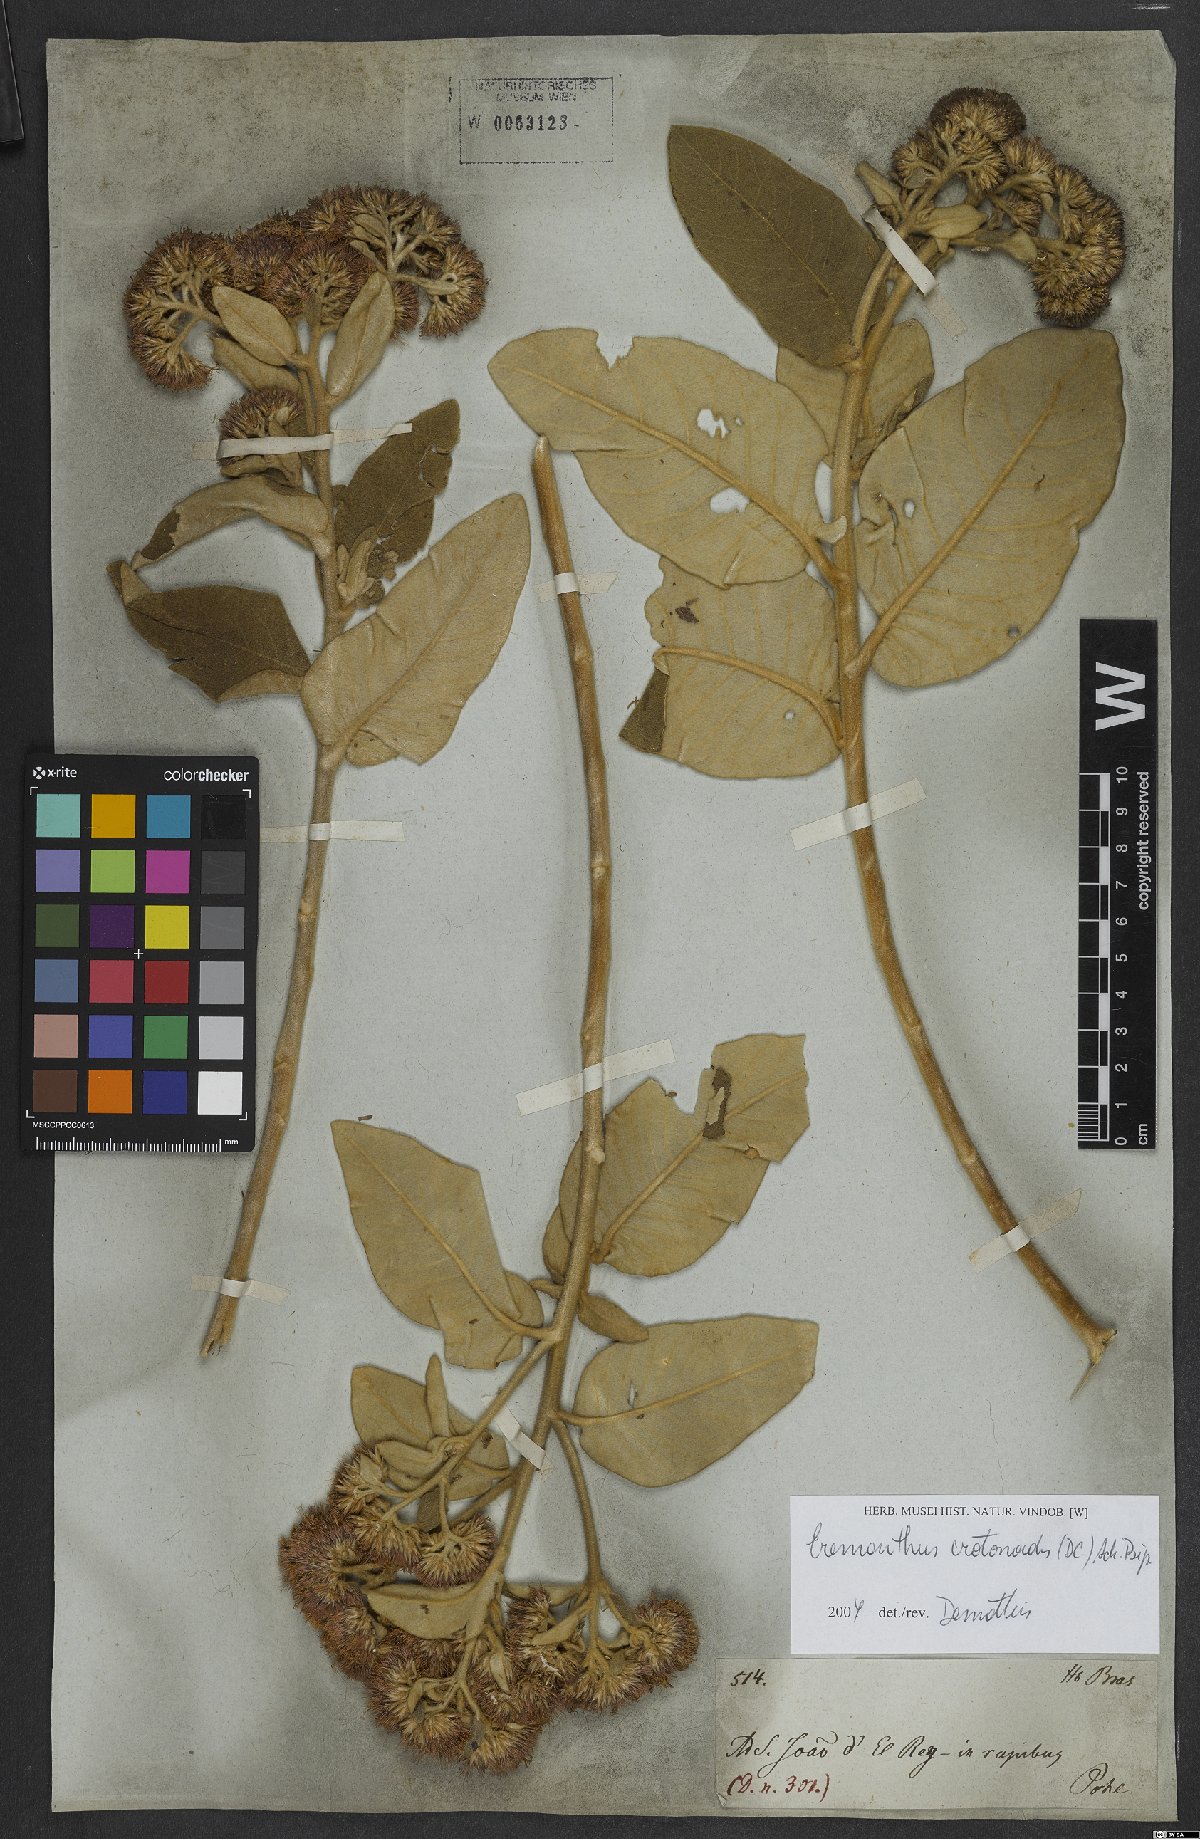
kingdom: Plantae
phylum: Tracheophyta
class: Magnoliopsida
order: Asterales
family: Asteraceae
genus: Eremanthus
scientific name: Eremanthus crotonoides
